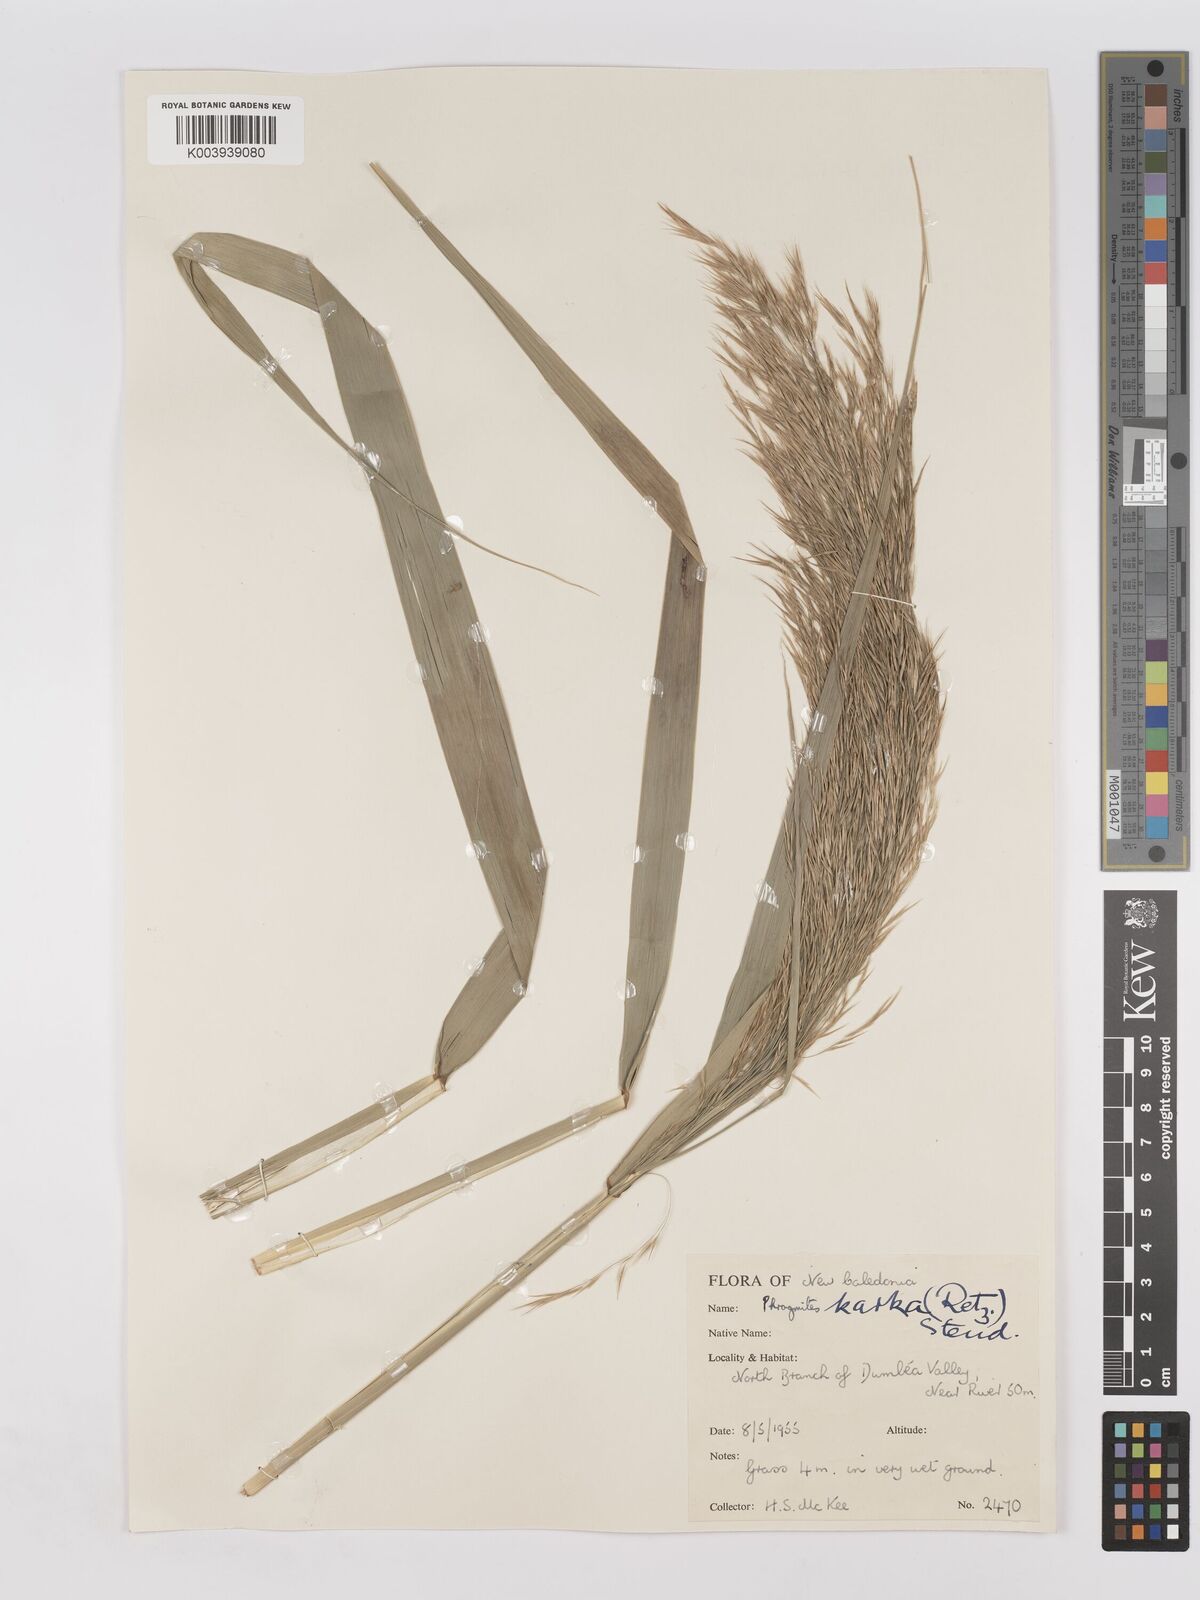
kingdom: Plantae
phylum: Tracheophyta
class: Liliopsida
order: Poales
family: Poaceae
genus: Phragmites
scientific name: Phragmites karka
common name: Tropical reed
